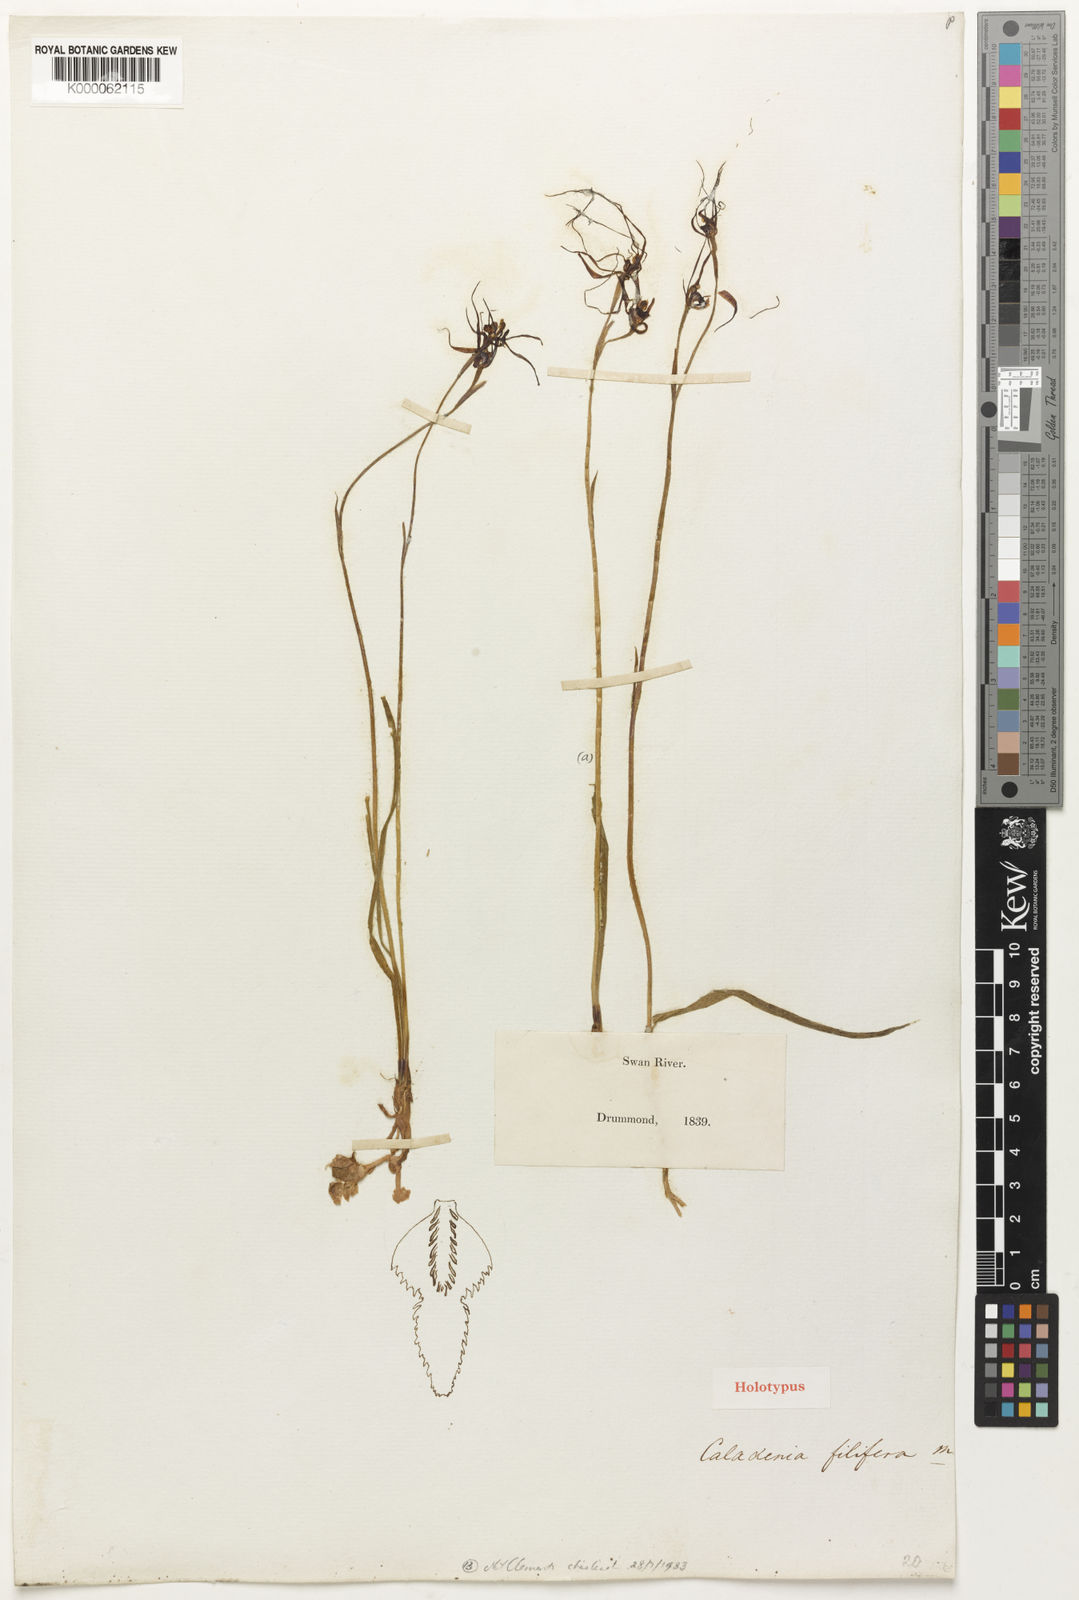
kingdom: Plantae
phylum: Tracheophyta
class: Liliopsida
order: Asparagales
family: Orchidaceae
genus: Caladenia
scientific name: Caladenia filifera
